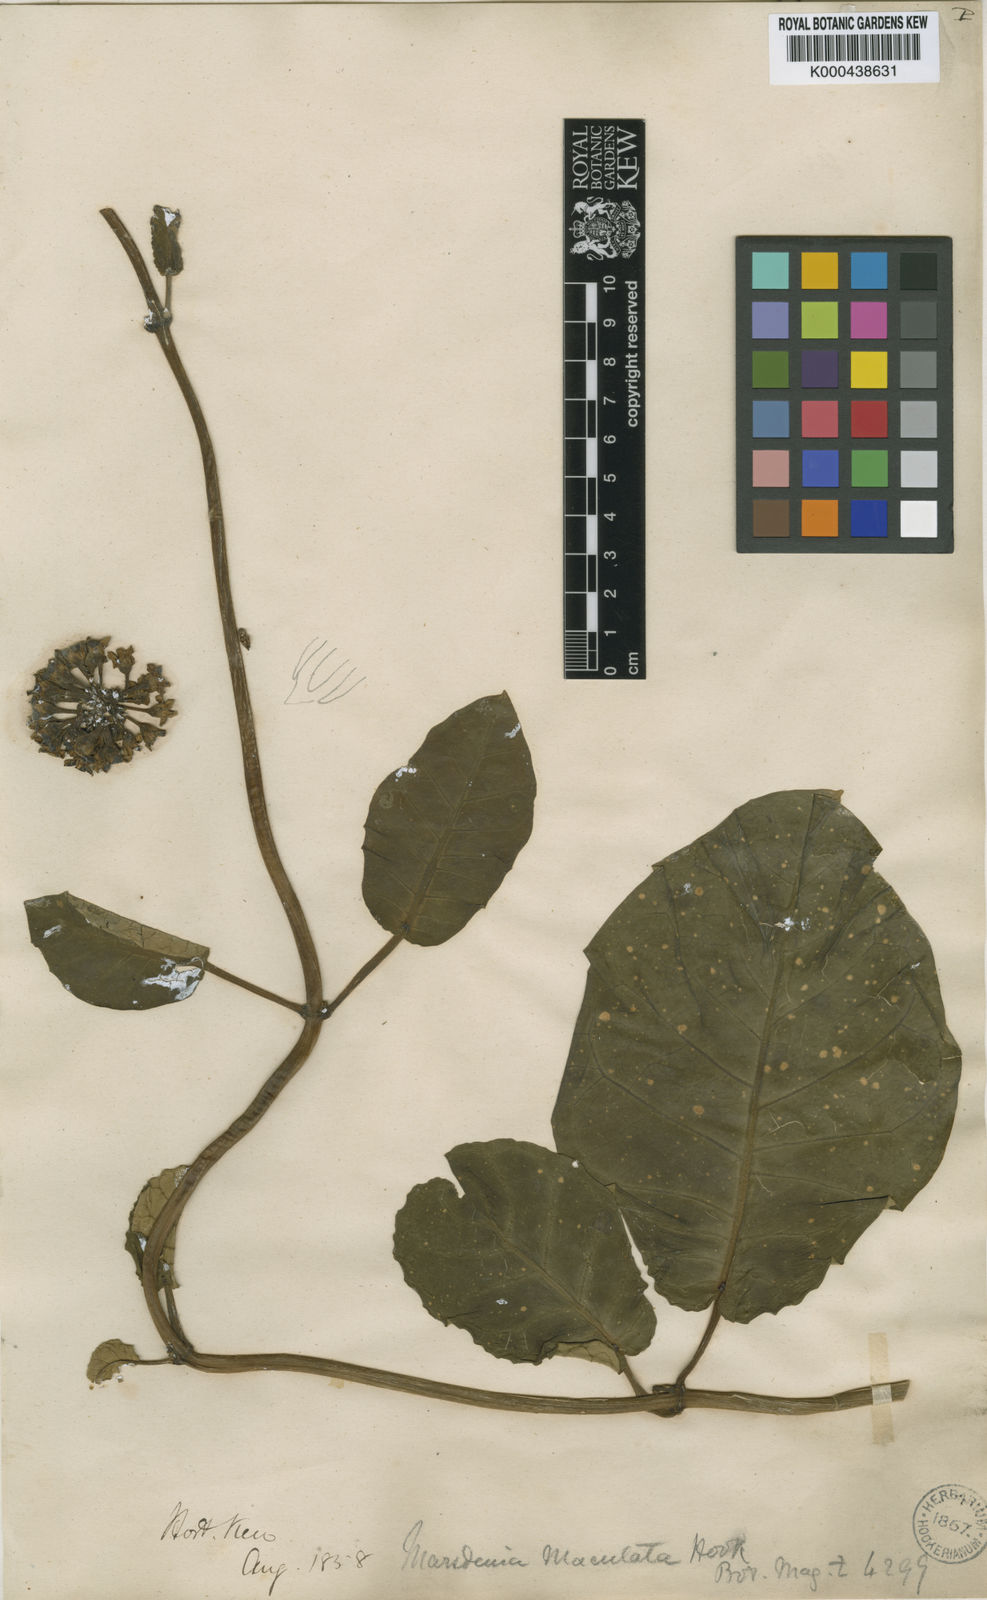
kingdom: Plantae
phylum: Tracheophyta
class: Magnoliopsida
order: Gentianales
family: Apocynaceae
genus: Ruehssia
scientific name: Ruehssia macrophylla
